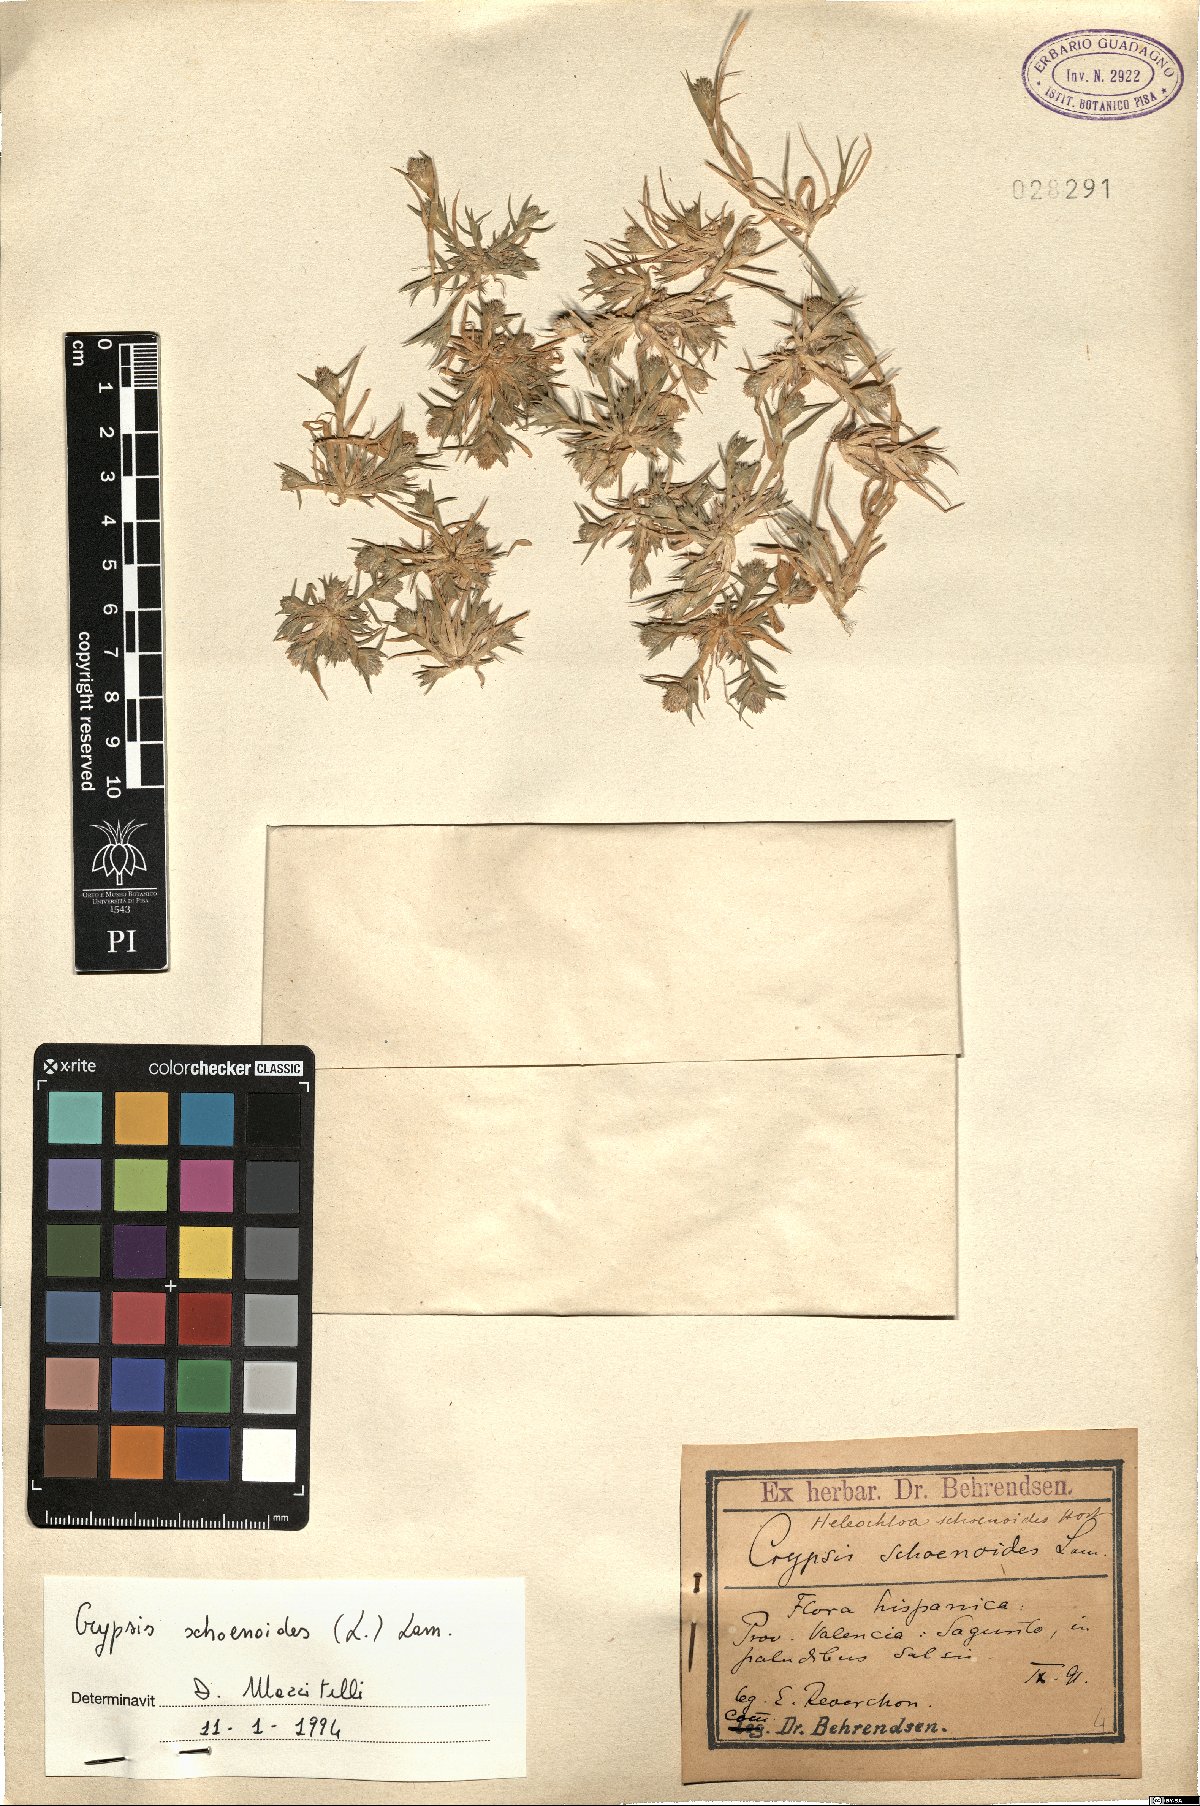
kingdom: Plantae
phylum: Tracheophyta
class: Liliopsida
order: Poales
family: Poaceae
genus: Sporobolus
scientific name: Sporobolus schoenoides
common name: Rush-like timothy
